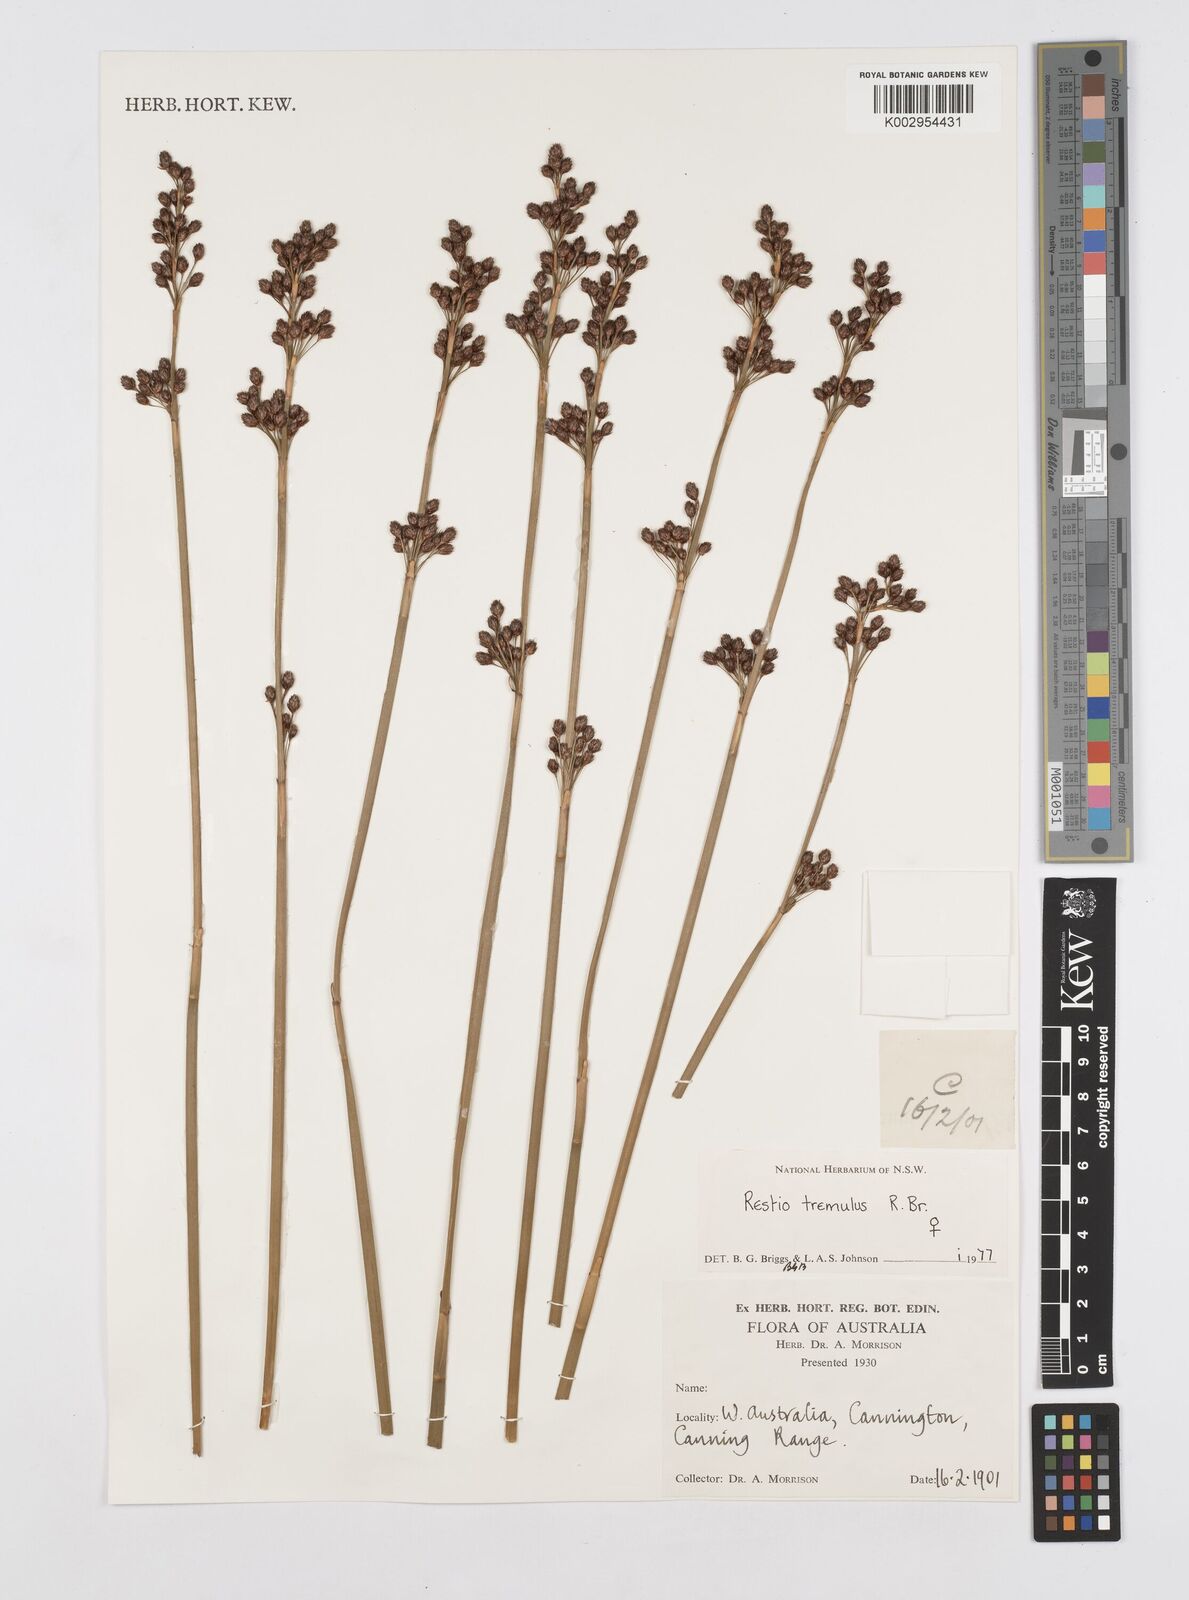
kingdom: Plantae
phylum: Tracheophyta
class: Liliopsida
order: Poales
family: Restionaceae
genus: Tremulina
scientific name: Tremulina tremula
